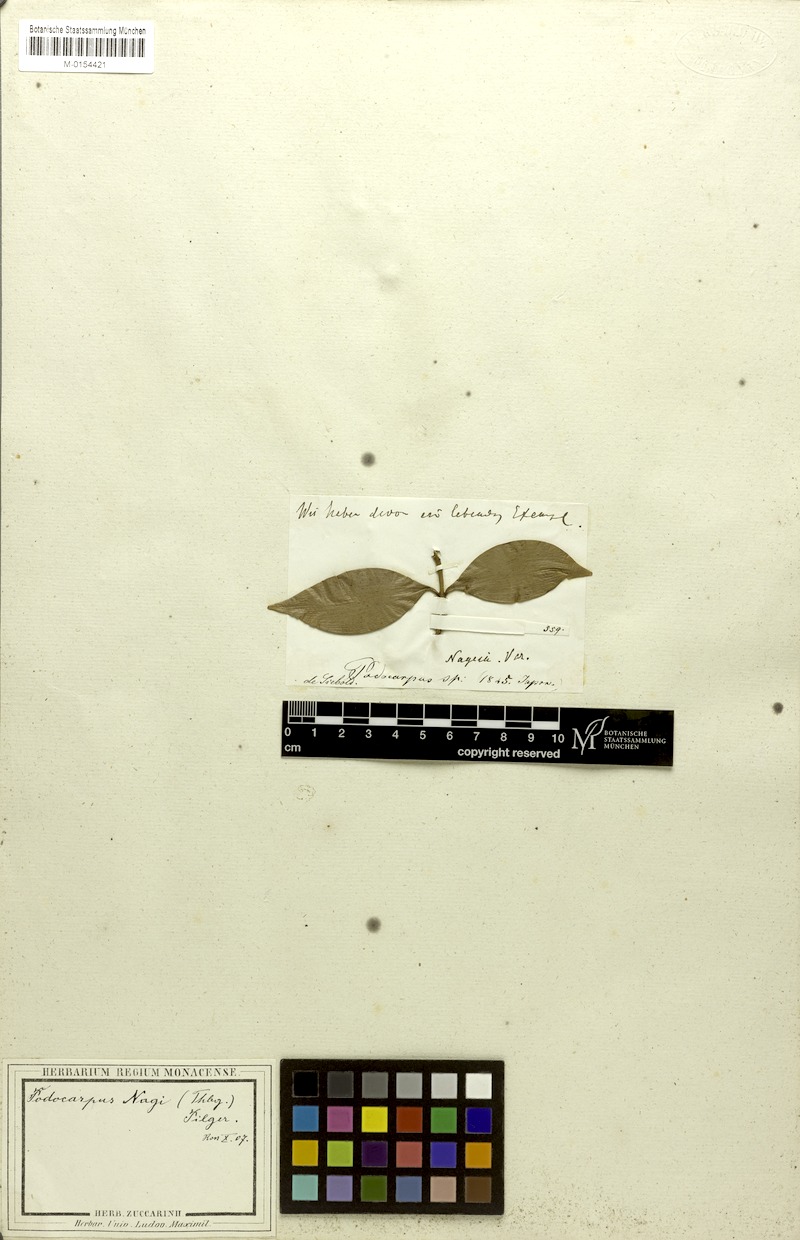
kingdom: Plantae
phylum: Tracheophyta
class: Pinopsida
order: Pinales
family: Podocarpaceae
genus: Nageia
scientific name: Nageia nagi
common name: Kaphal
